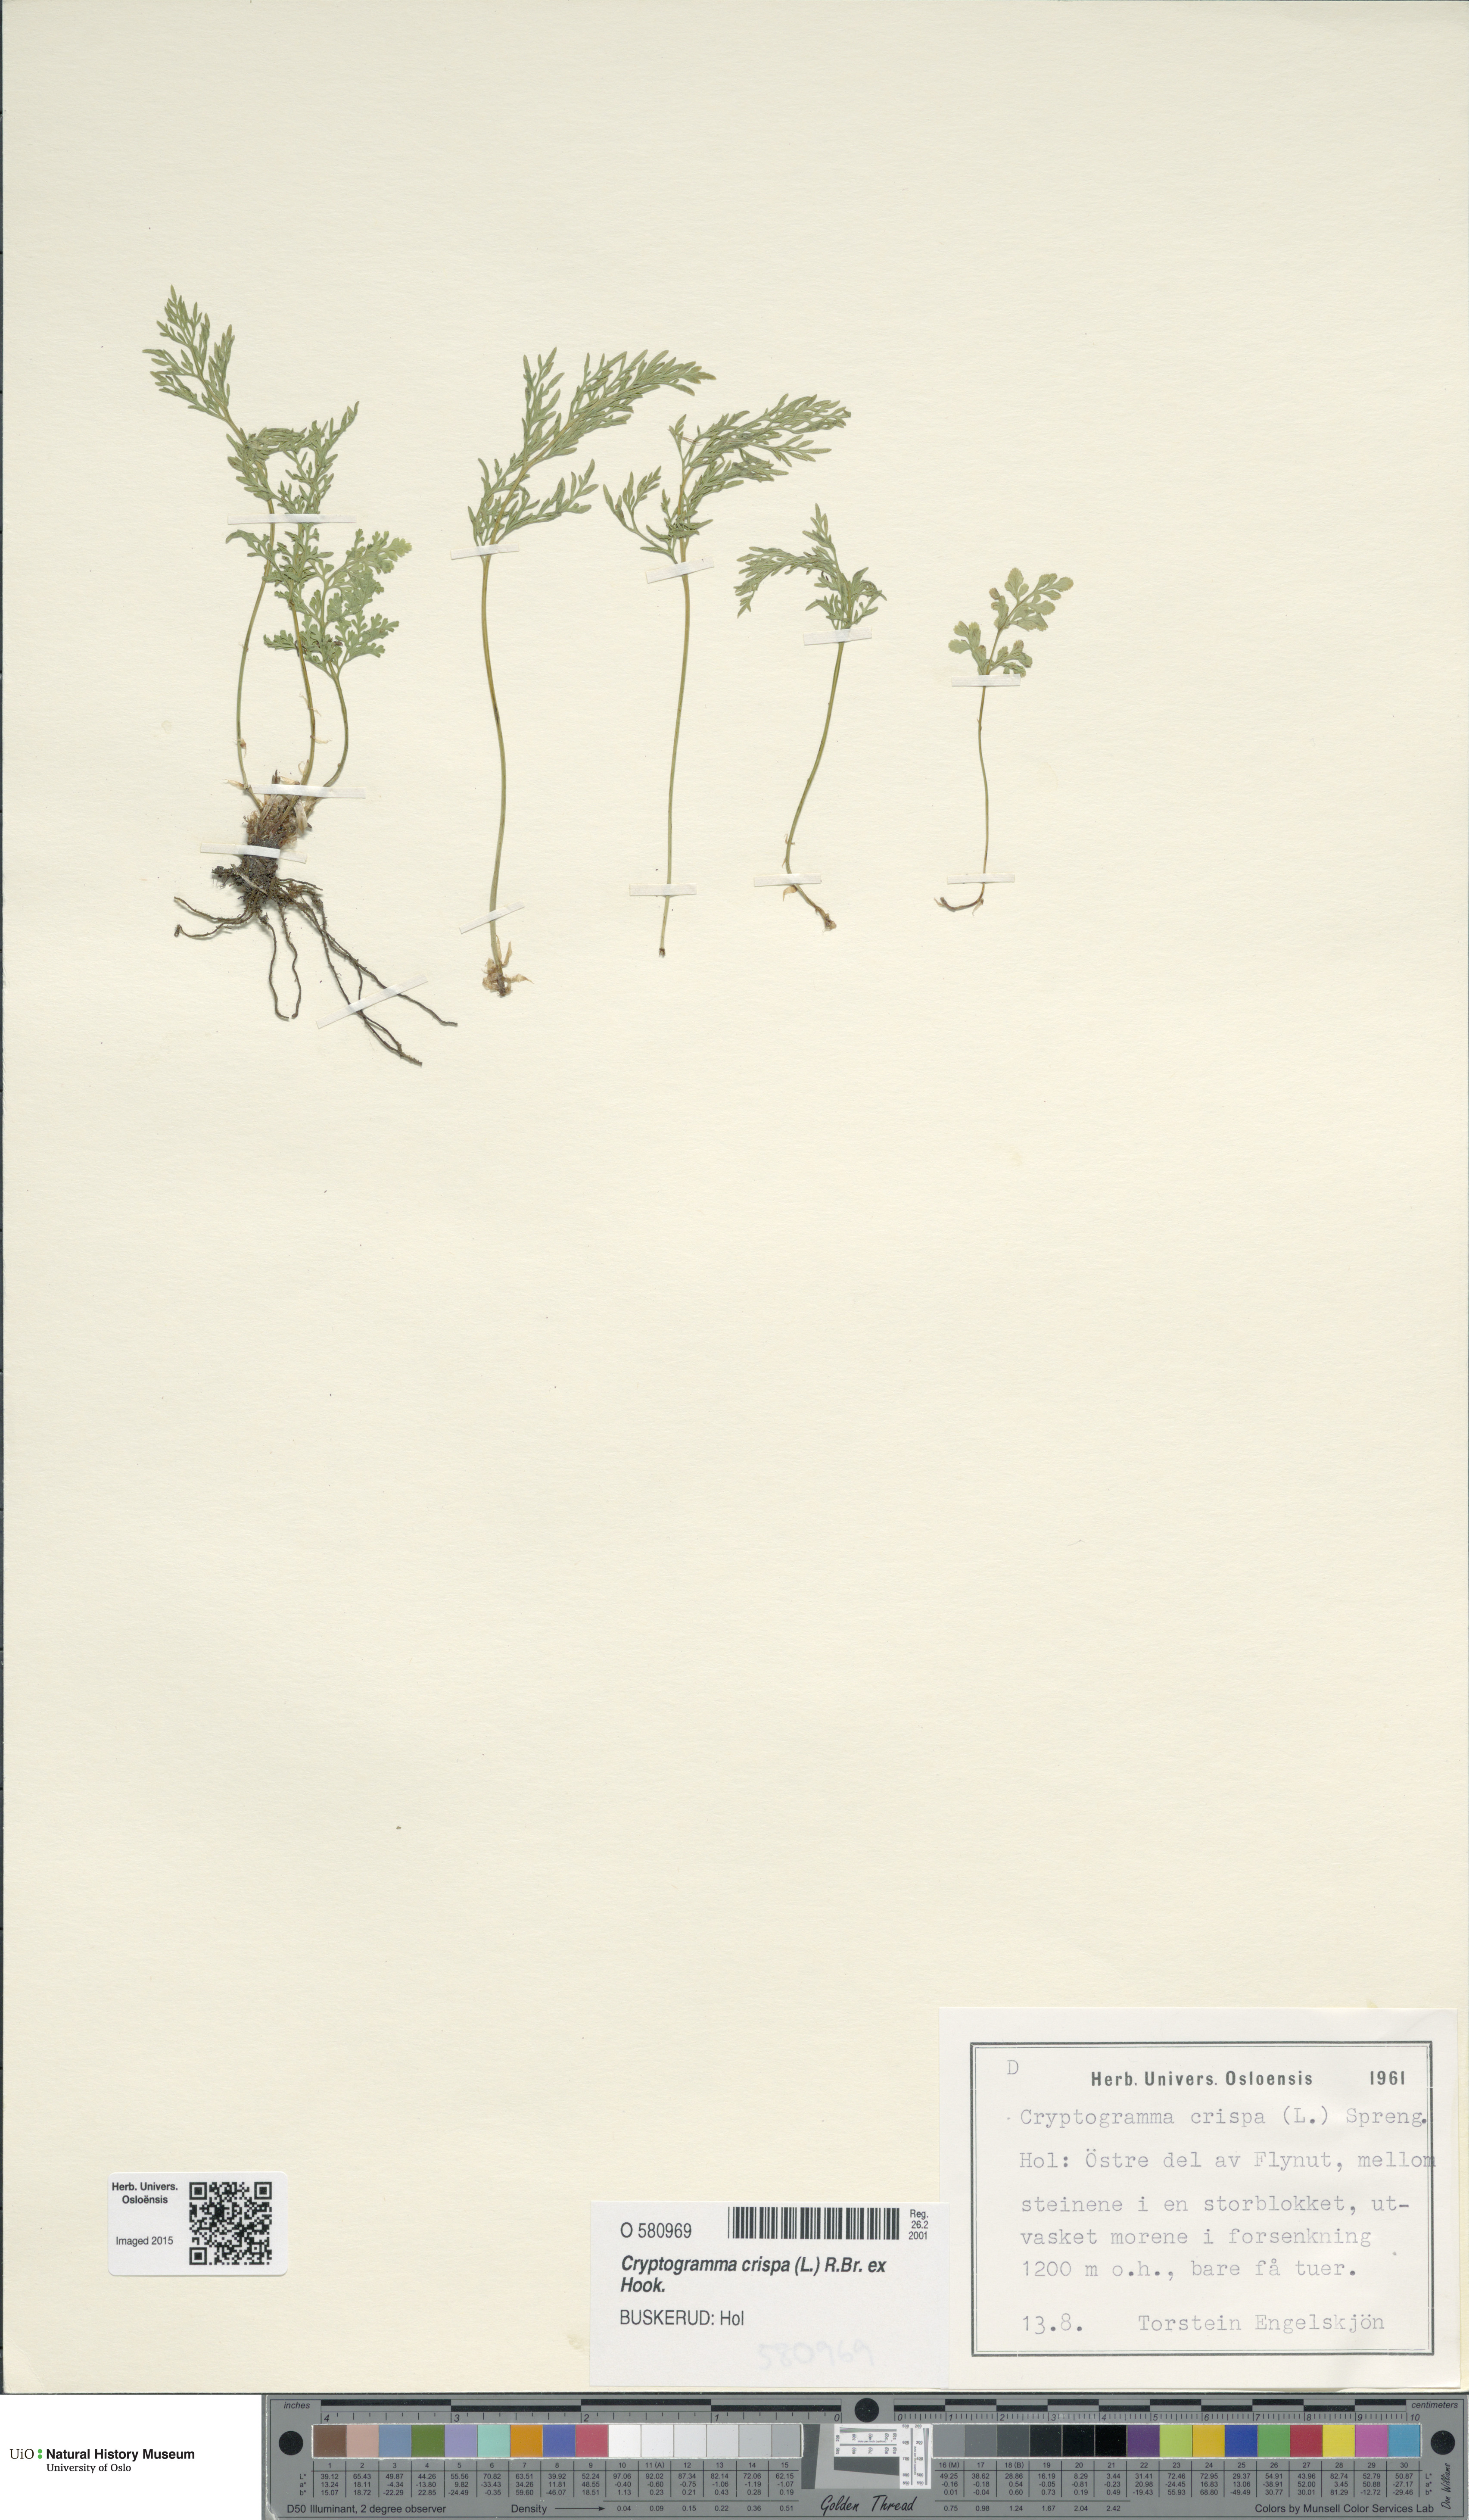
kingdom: Plantae
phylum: Tracheophyta
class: Polypodiopsida
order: Polypodiales
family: Pteridaceae
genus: Cryptogramma
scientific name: Cryptogramma crispa
